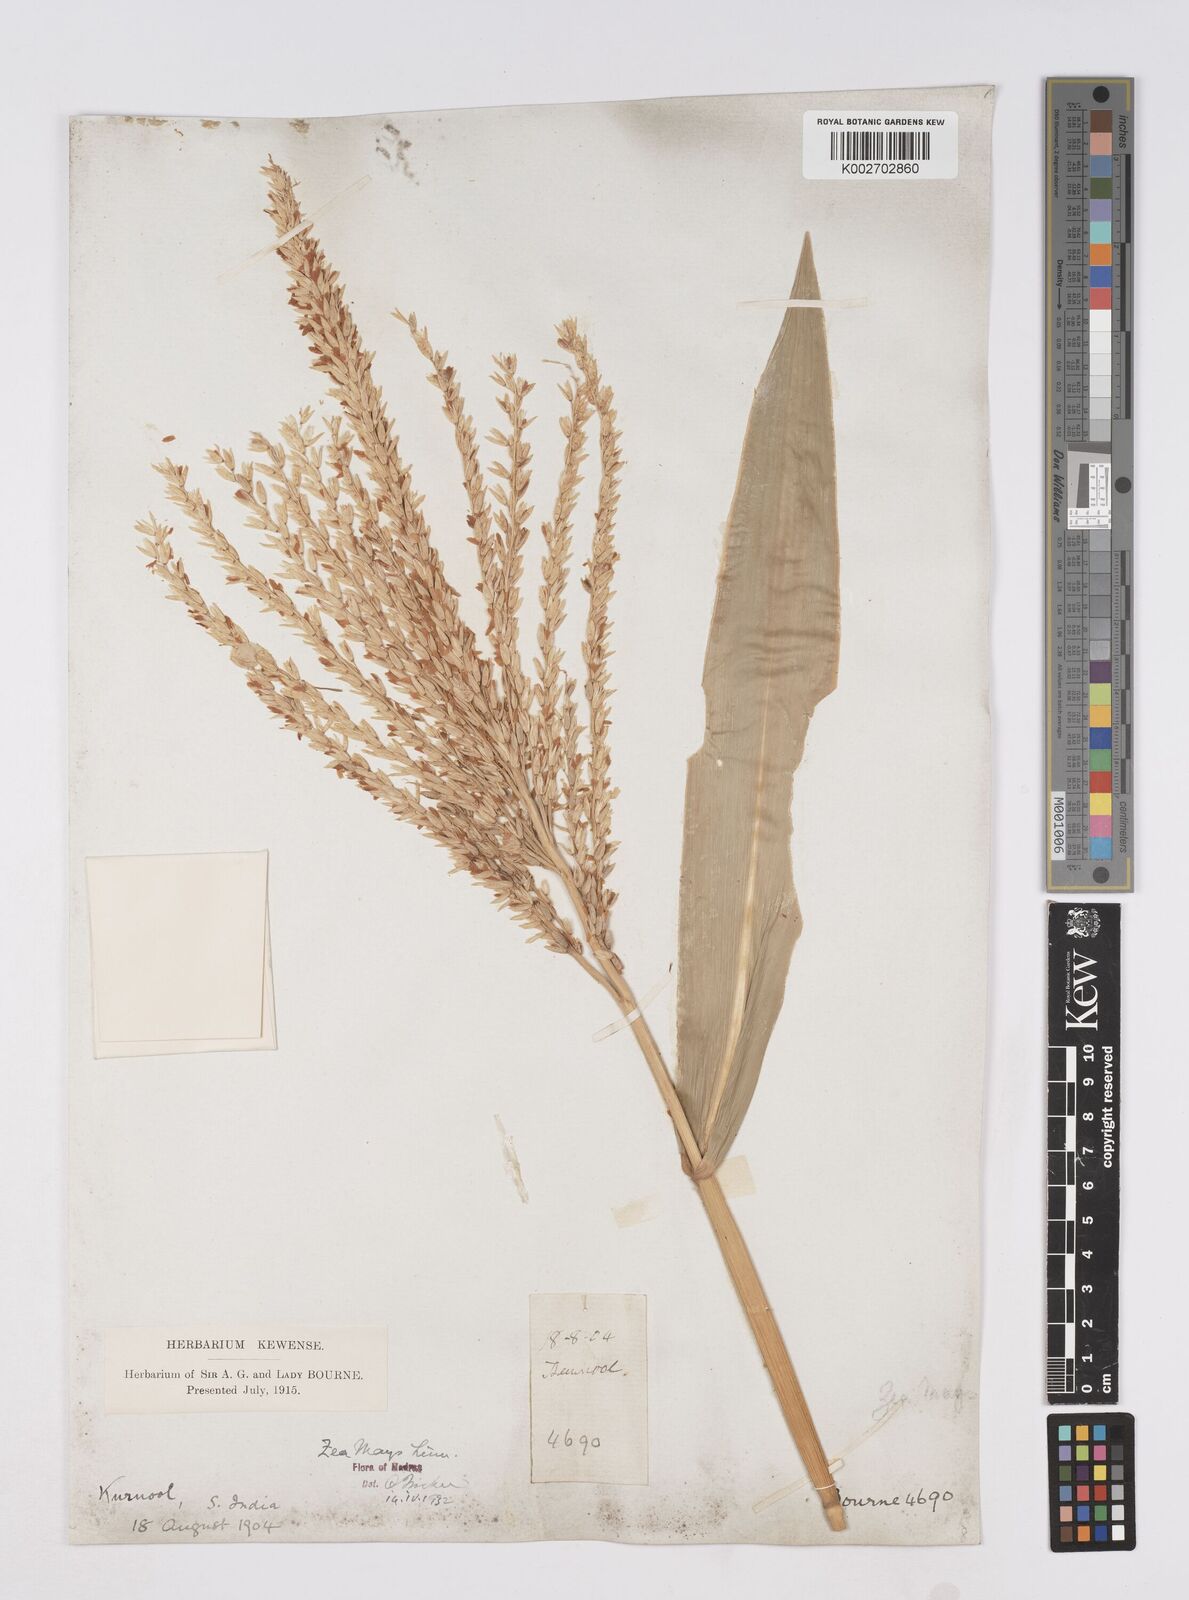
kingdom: Plantae
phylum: Tracheophyta
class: Liliopsida
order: Poales
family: Poaceae
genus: Zea
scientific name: Zea mays
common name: Maize
